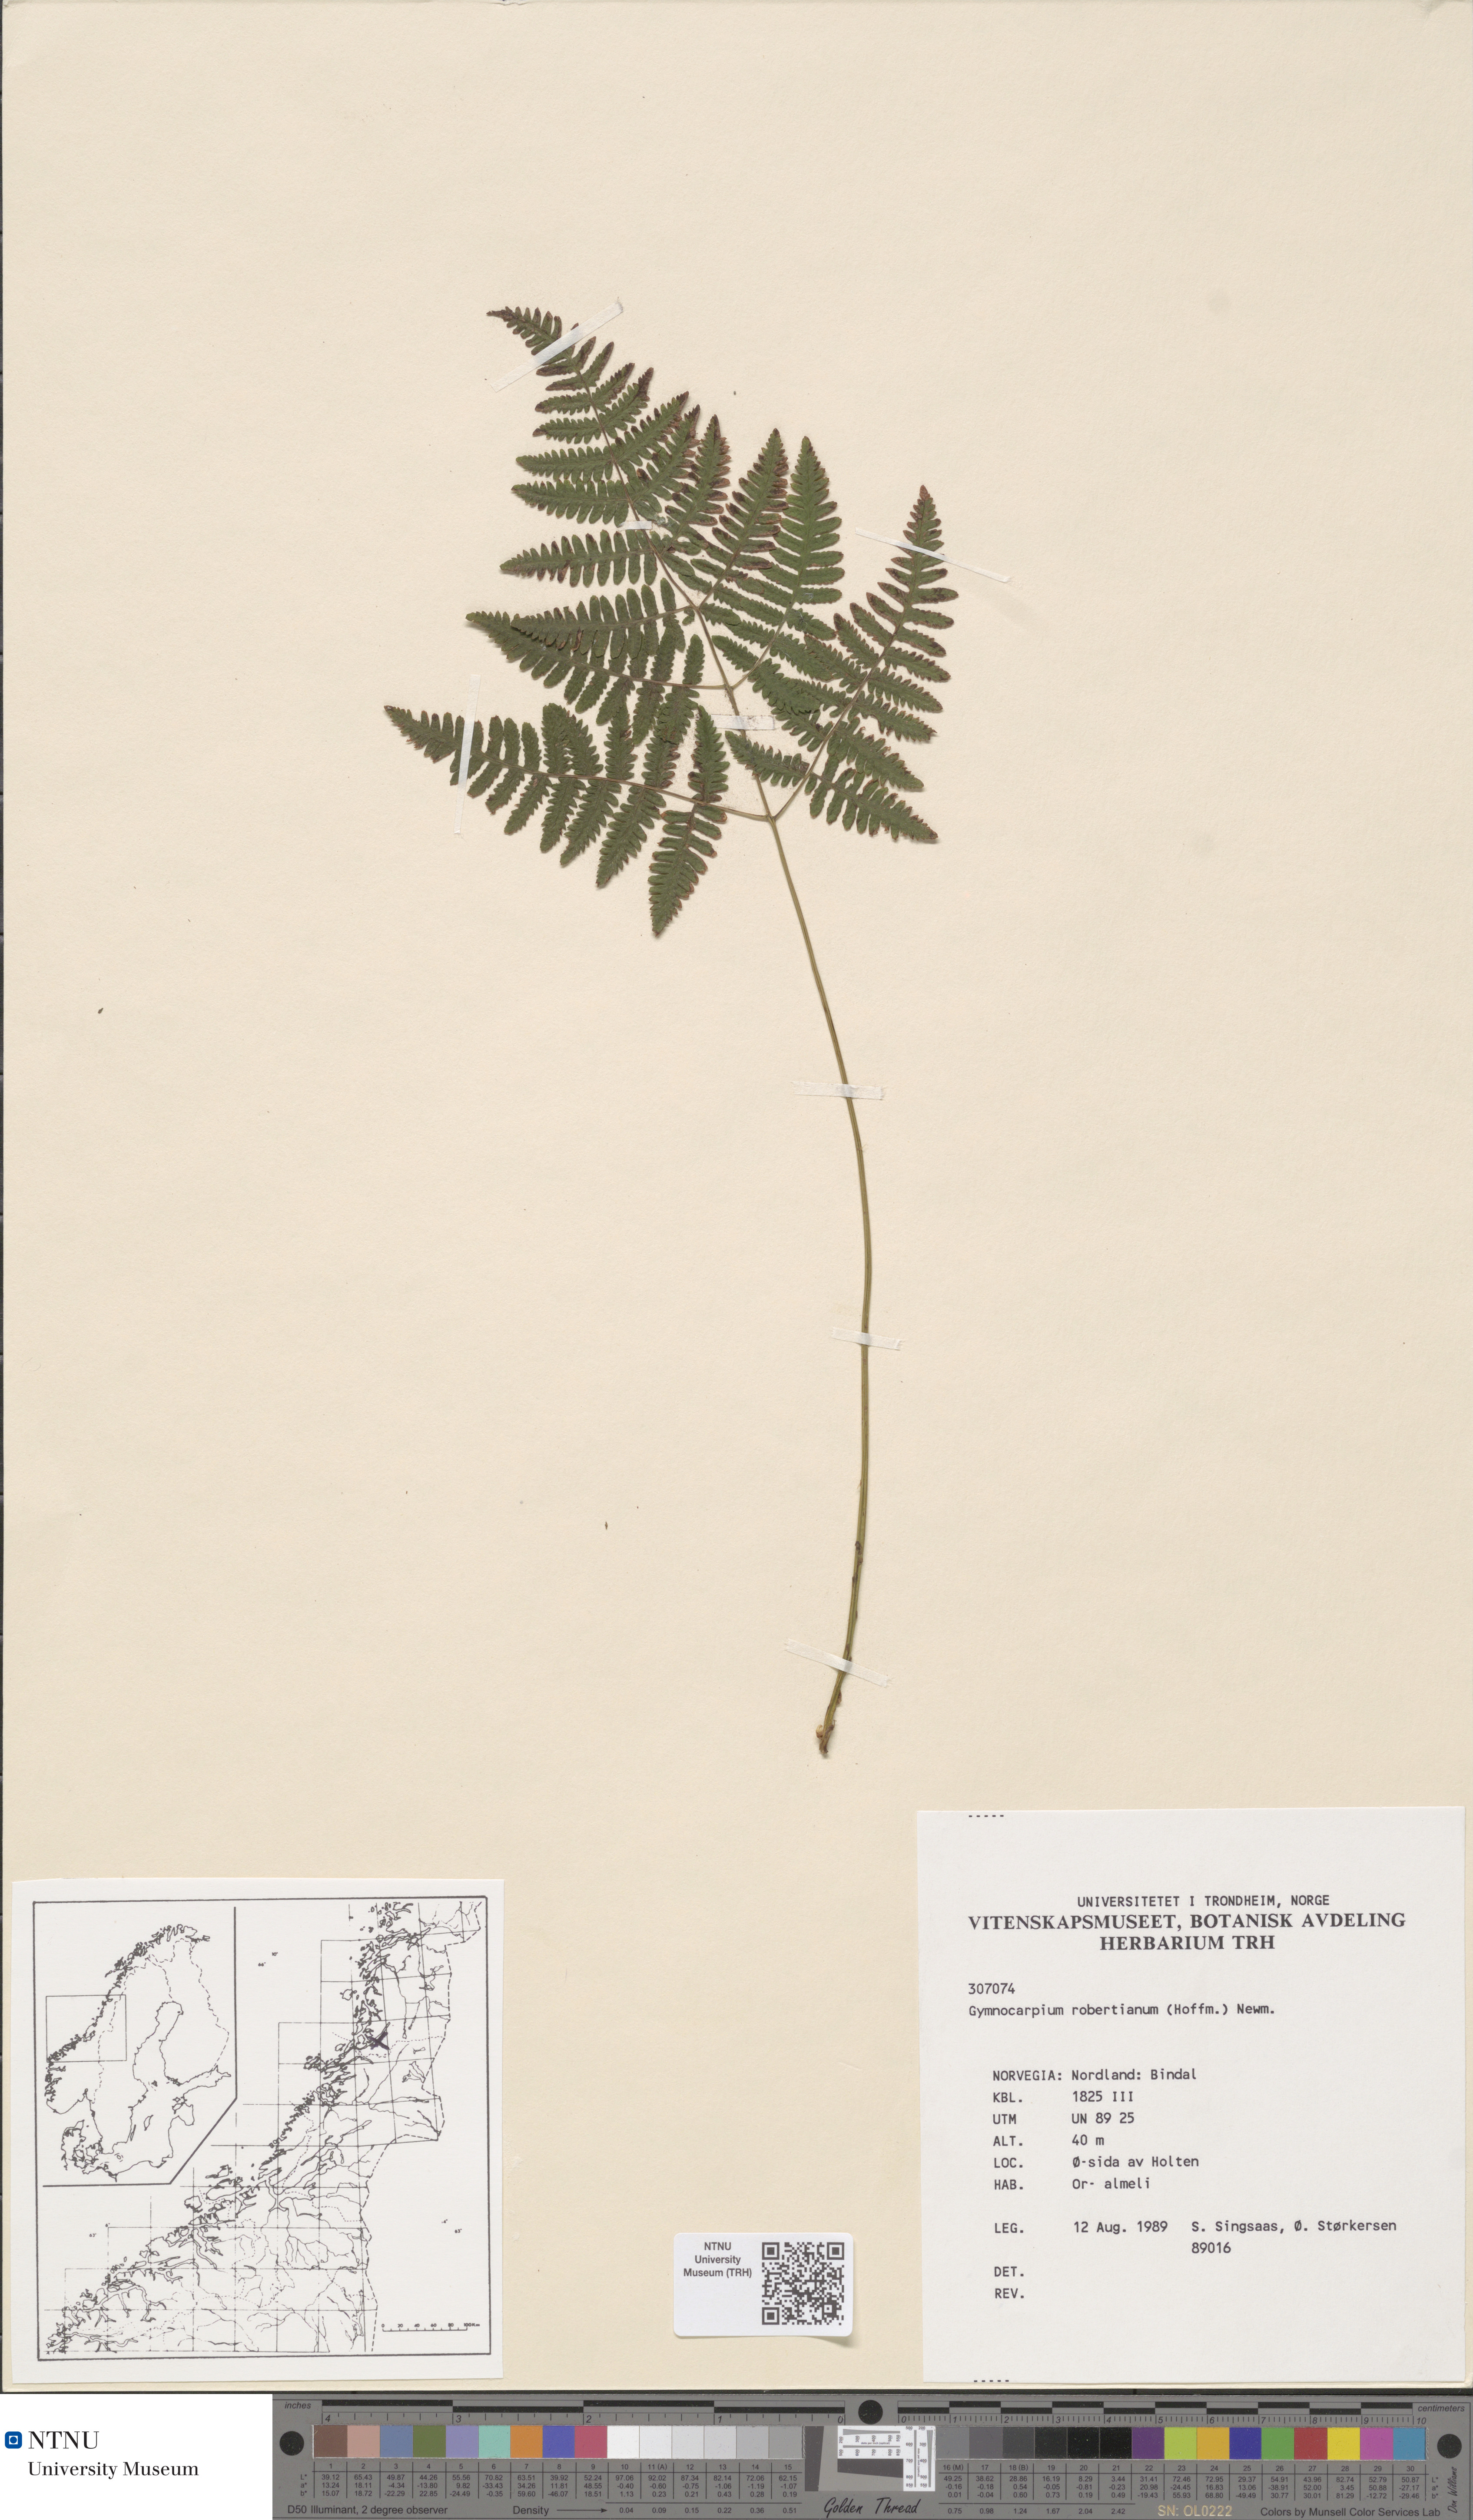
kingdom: Plantae
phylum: Tracheophyta
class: Polypodiopsida
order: Polypodiales
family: Cystopteridaceae
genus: Gymnocarpium
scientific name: Gymnocarpium robertianum
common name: Limestone fern
